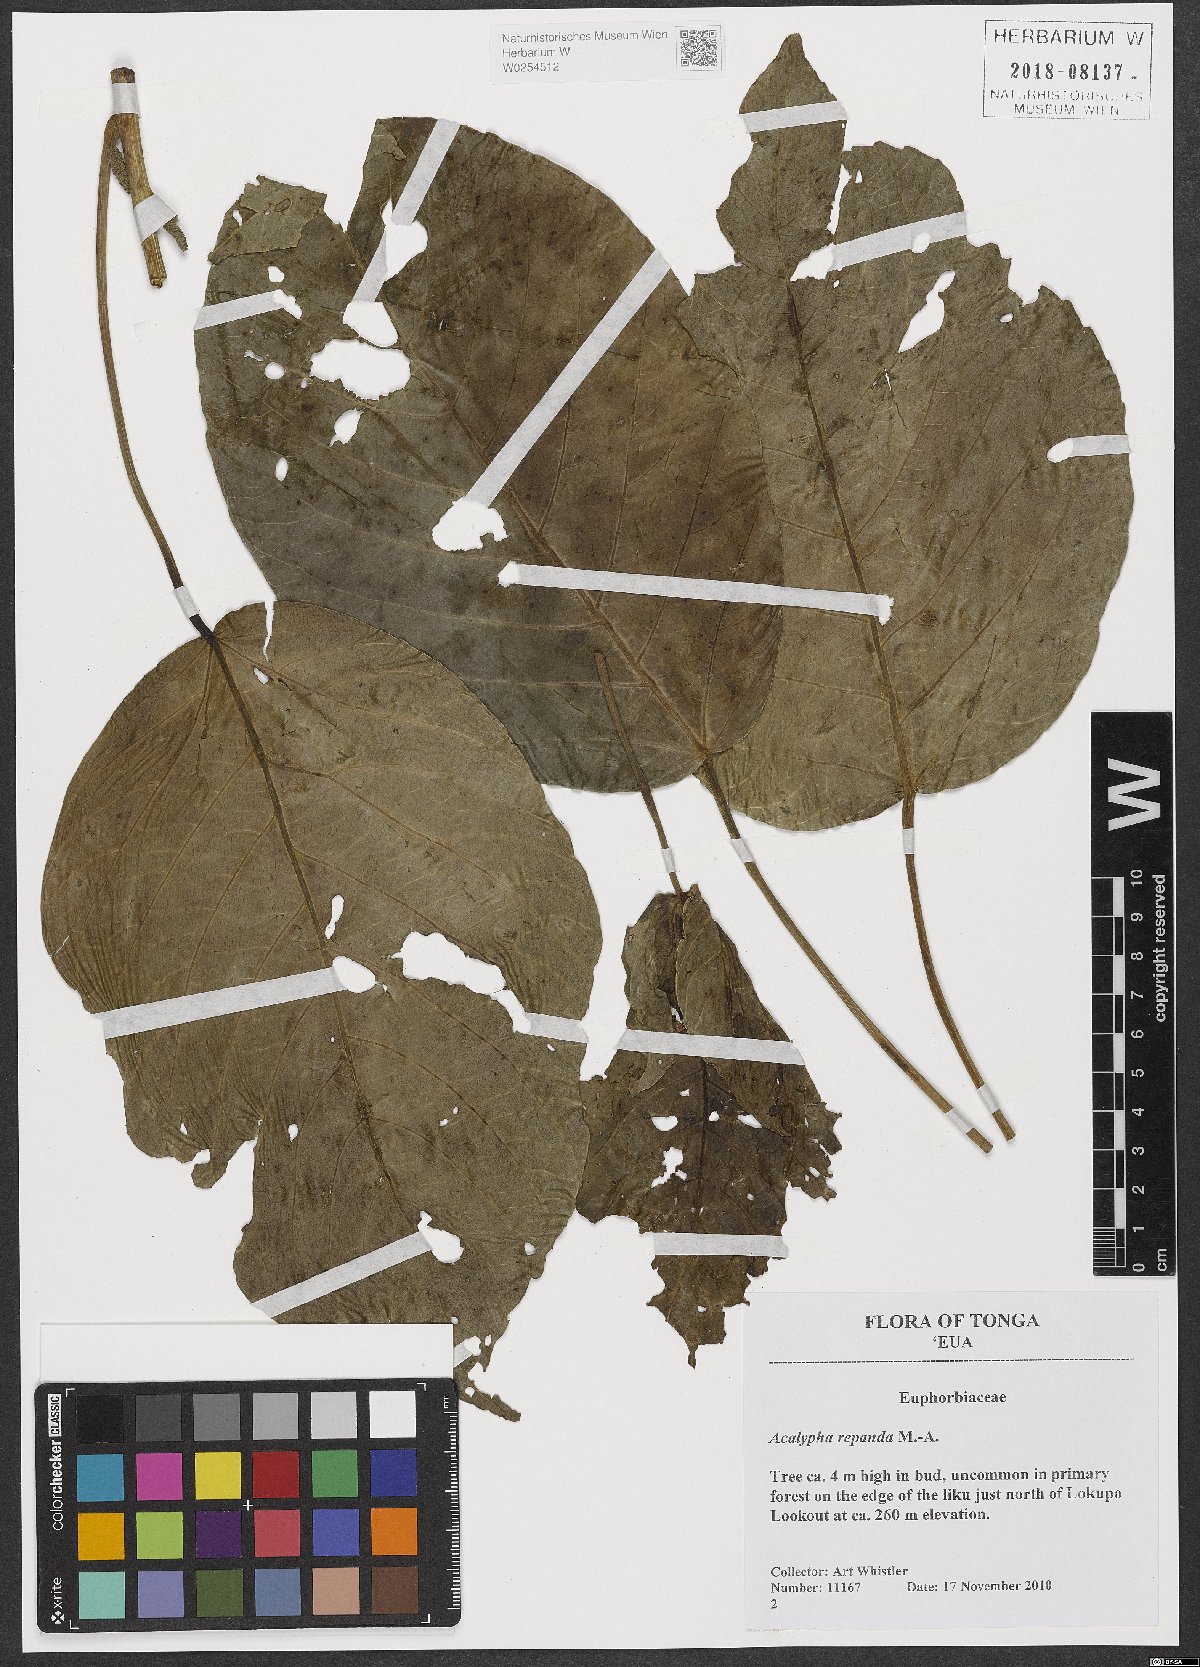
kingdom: Plantae
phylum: Tracheophyta
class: Magnoliopsida
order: Malpighiales
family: Euphorbiaceae
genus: Acalypha
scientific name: Acalypha repanda
